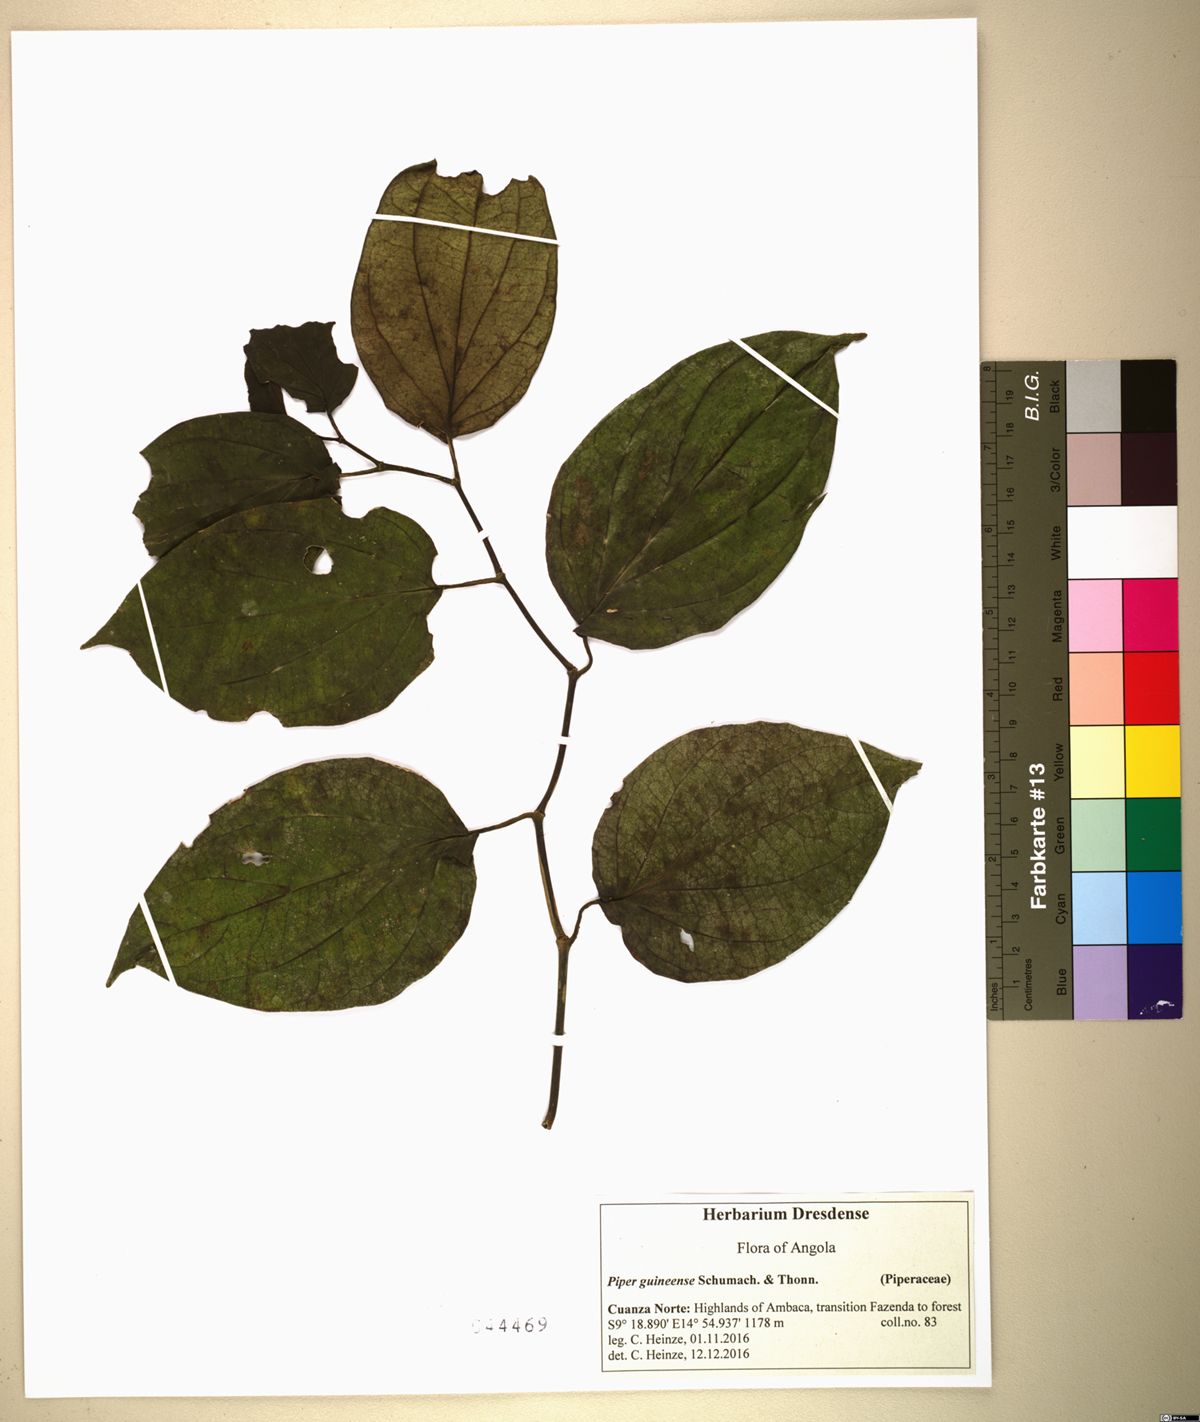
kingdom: Plantae
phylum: Tracheophyta
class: Magnoliopsida
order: Piperales
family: Piperaceae
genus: Piper
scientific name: Piper guineense
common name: Benin pepper
